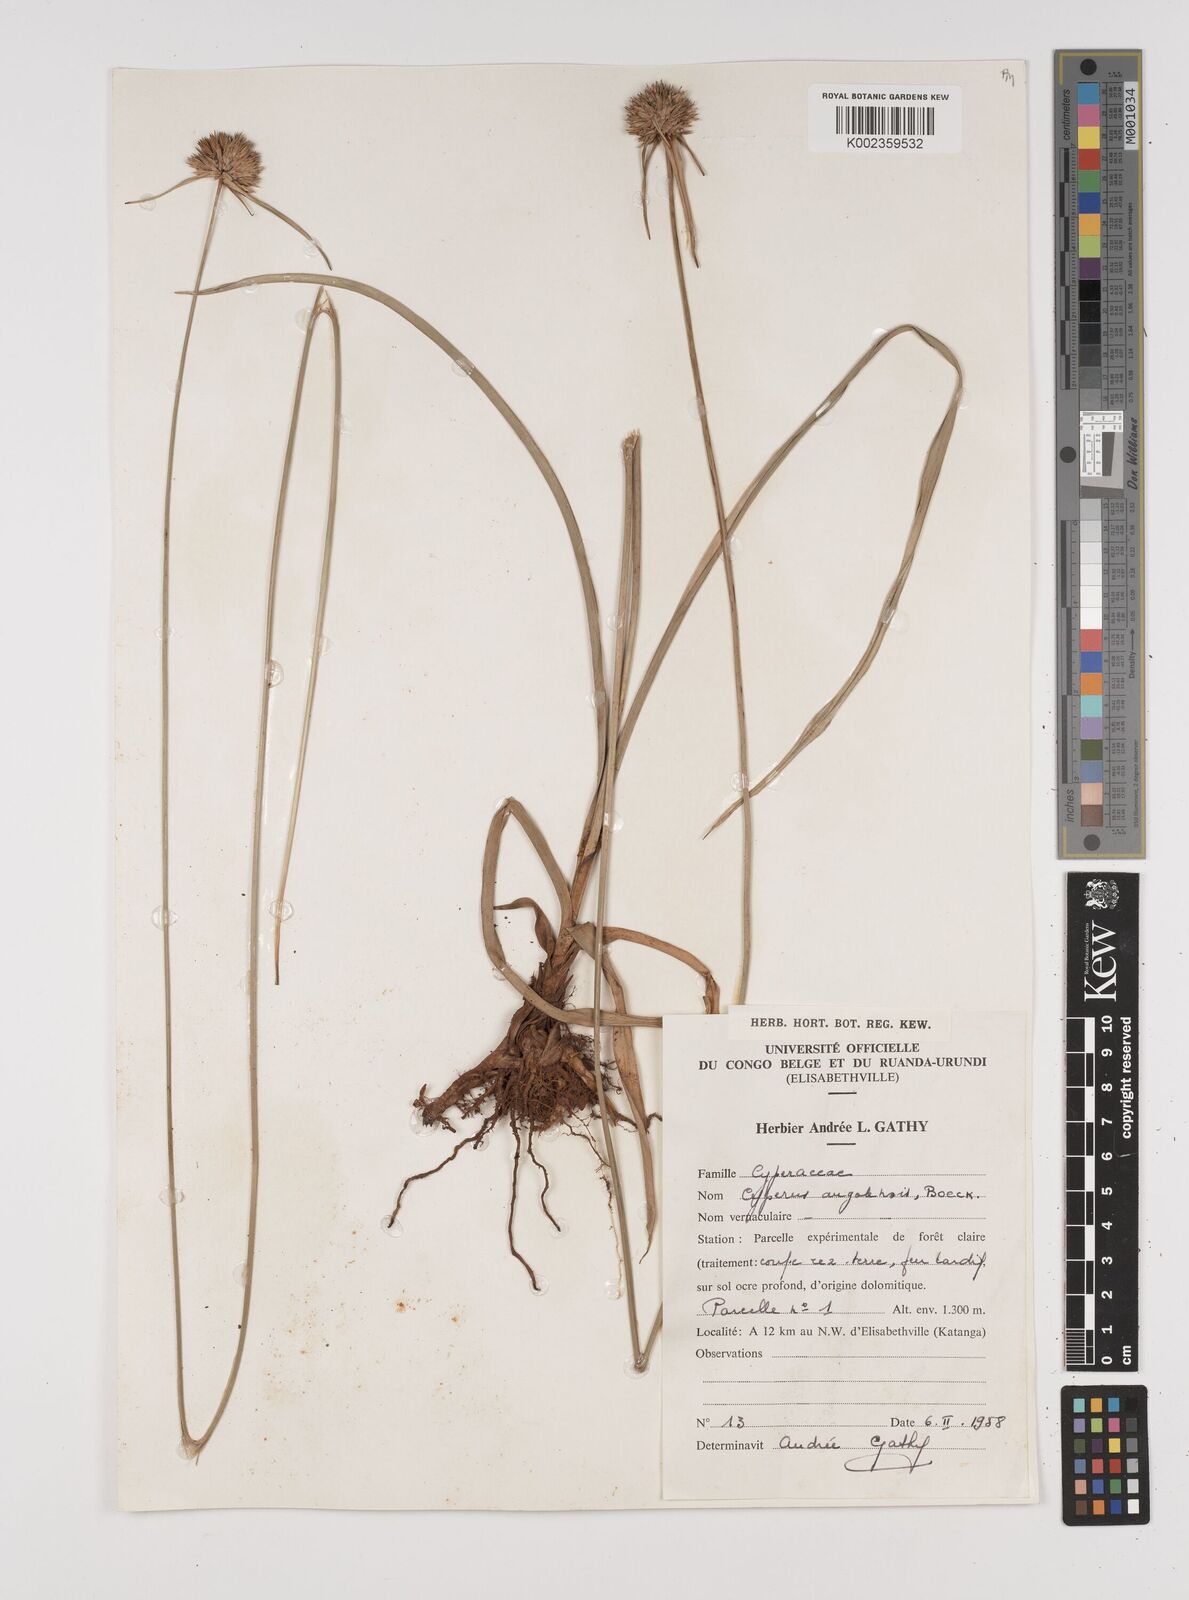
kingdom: Plantae
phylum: Tracheophyta
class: Liliopsida
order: Poales
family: Cyperaceae
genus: Cyperus
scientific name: Cyperus angolensis
